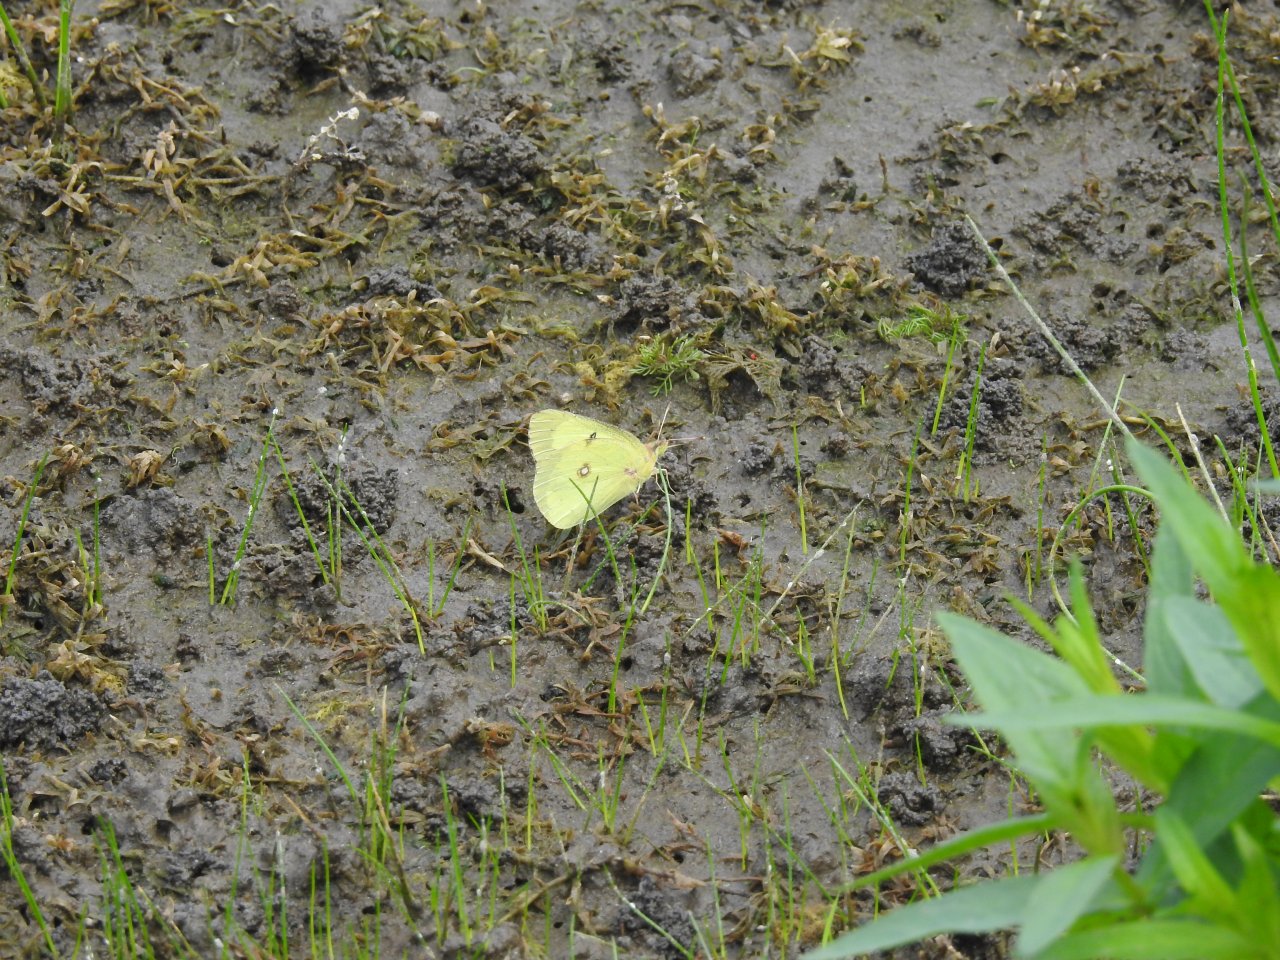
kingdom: Animalia
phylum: Arthropoda
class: Insecta
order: Lepidoptera
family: Pieridae
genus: Colias
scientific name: Colias philodice
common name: Clouded Sulphur
